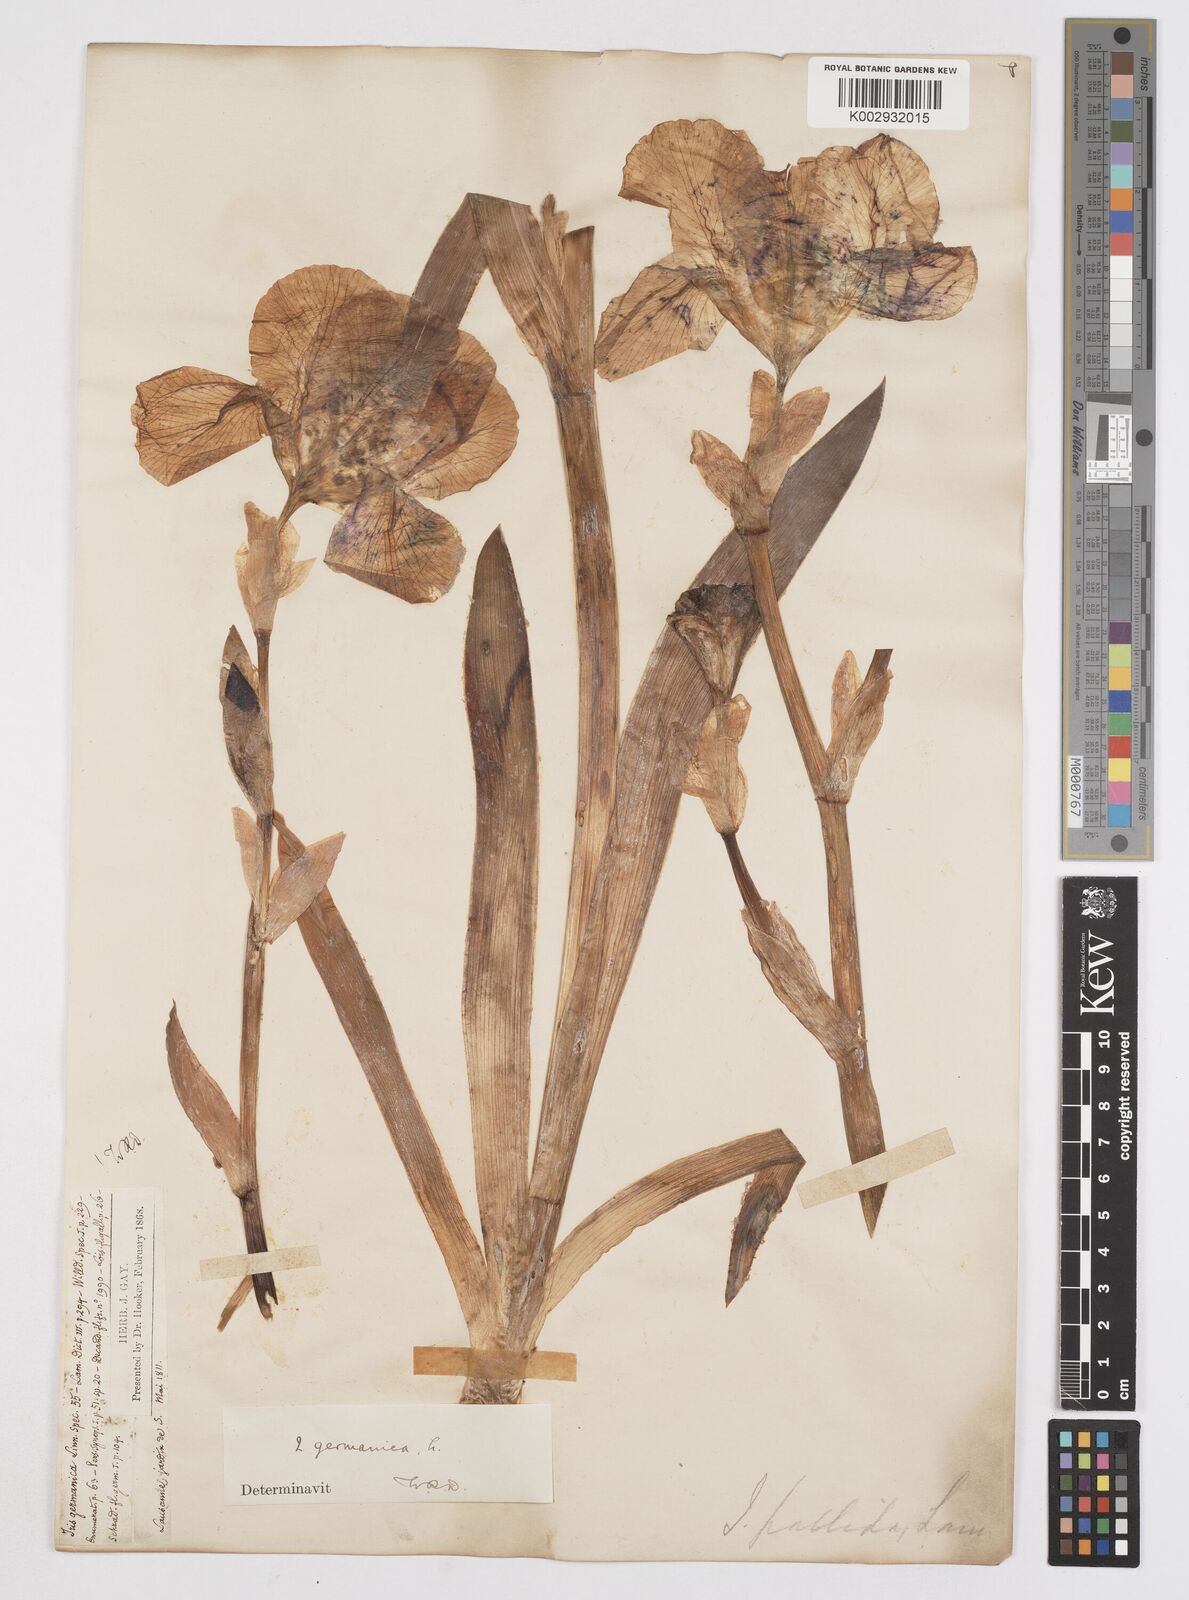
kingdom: Plantae
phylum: Tracheophyta
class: Liliopsida
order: Asparagales
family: Iridaceae
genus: Iris
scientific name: Iris germanica
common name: German iris
